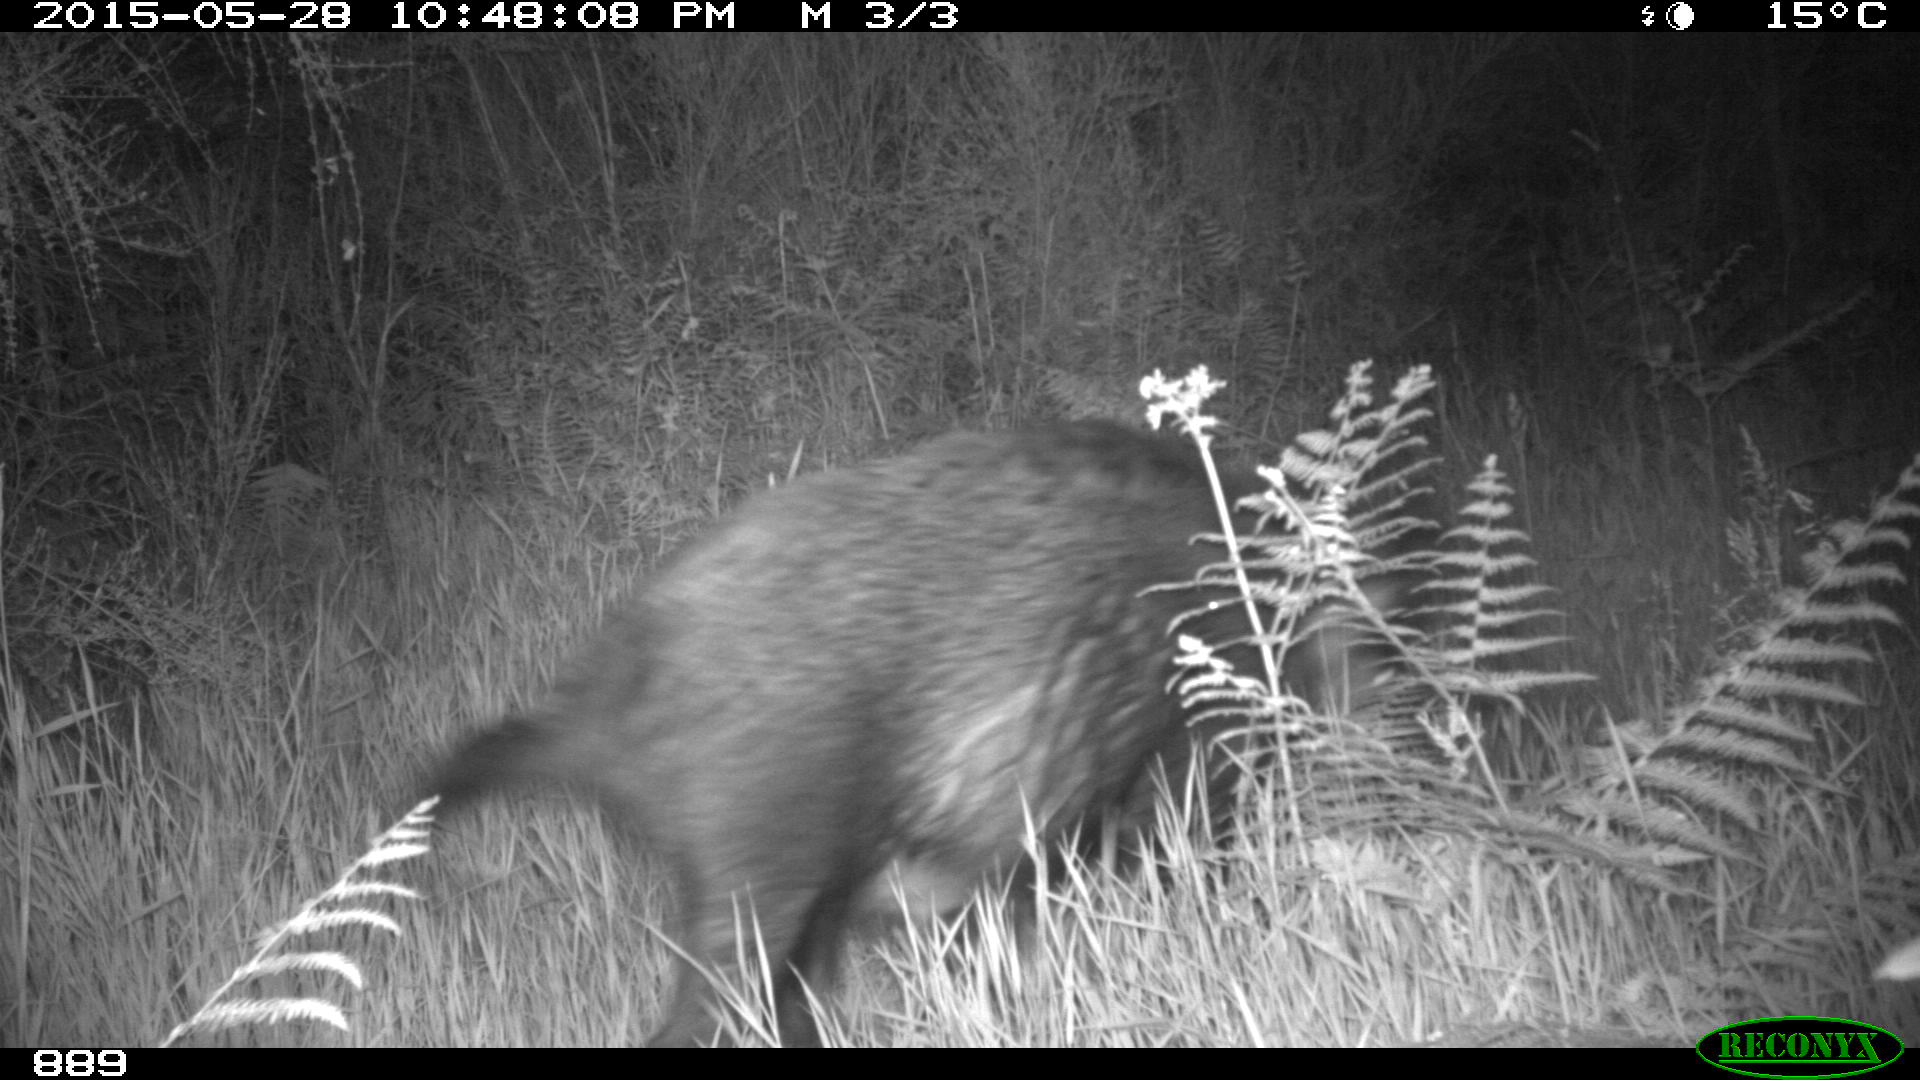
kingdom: Animalia
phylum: Chordata
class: Mammalia
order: Artiodactyla
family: Suidae
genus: Sus
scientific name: Sus scrofa
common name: Wild boar
